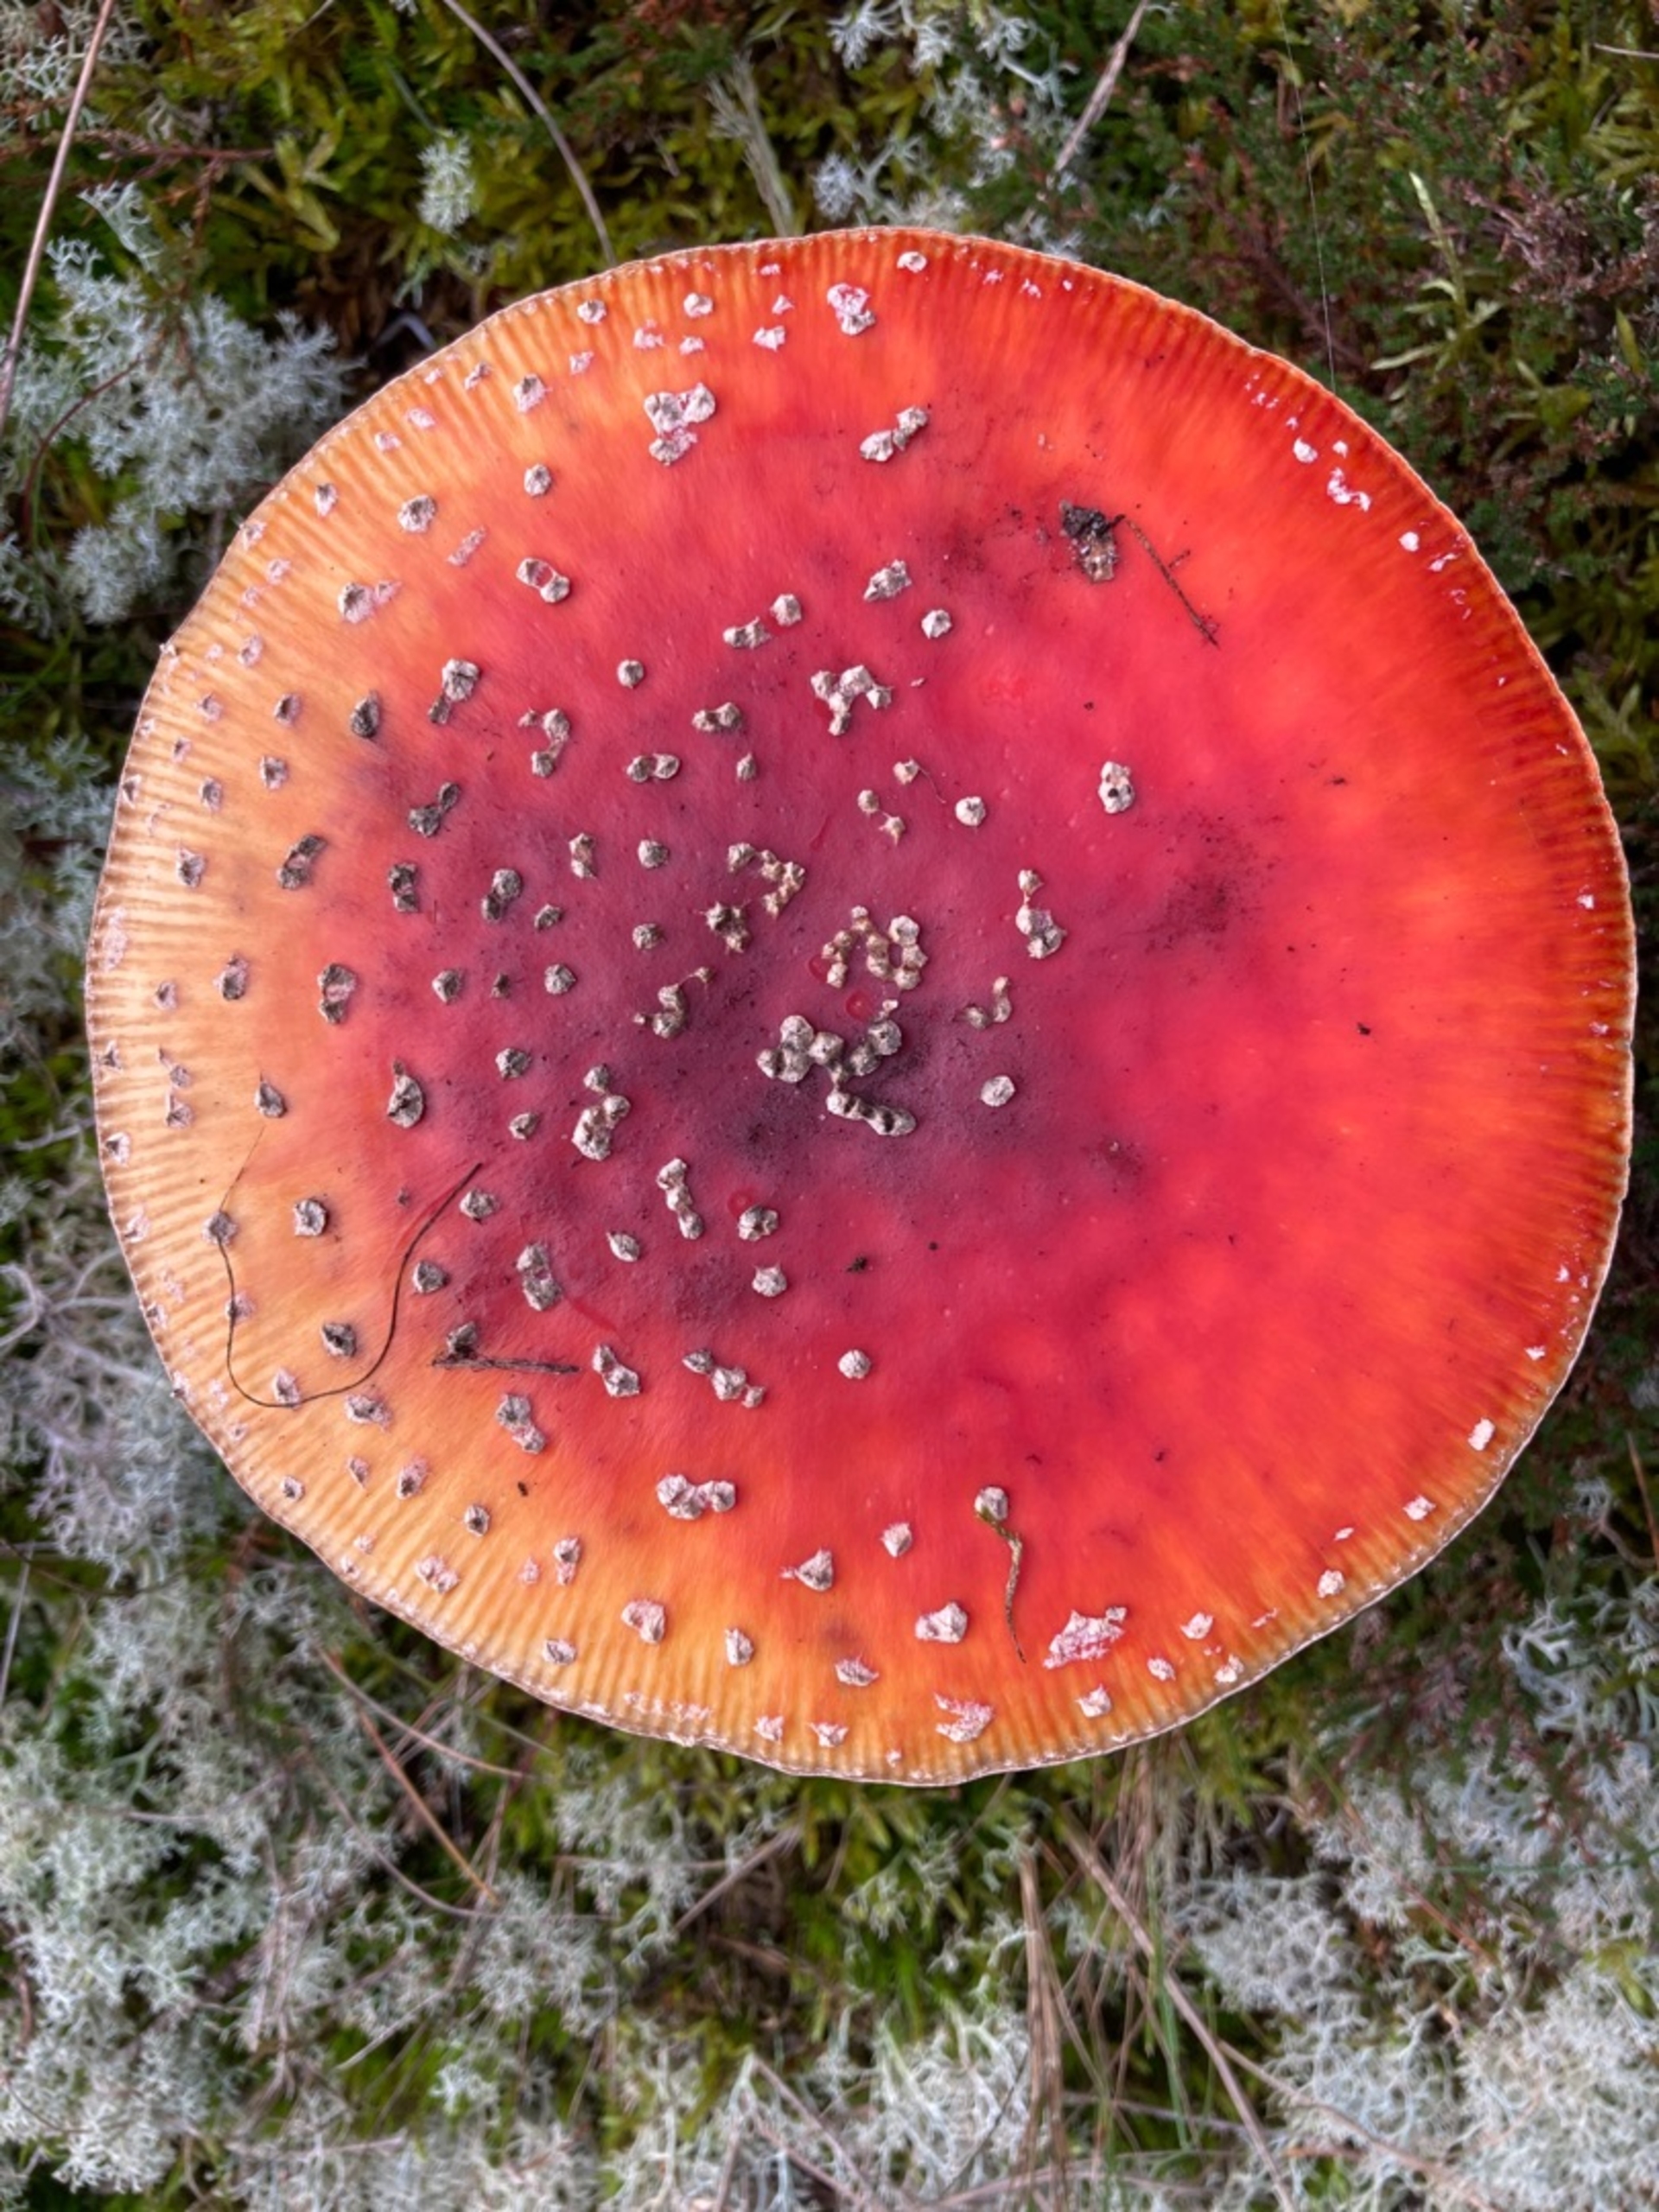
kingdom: Fungi
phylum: Basidiomycota
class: Agaricomycetes
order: Agaricales
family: Amanitaceae
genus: Amanita
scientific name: Amanita muscaria
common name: Rød fluesvamp
